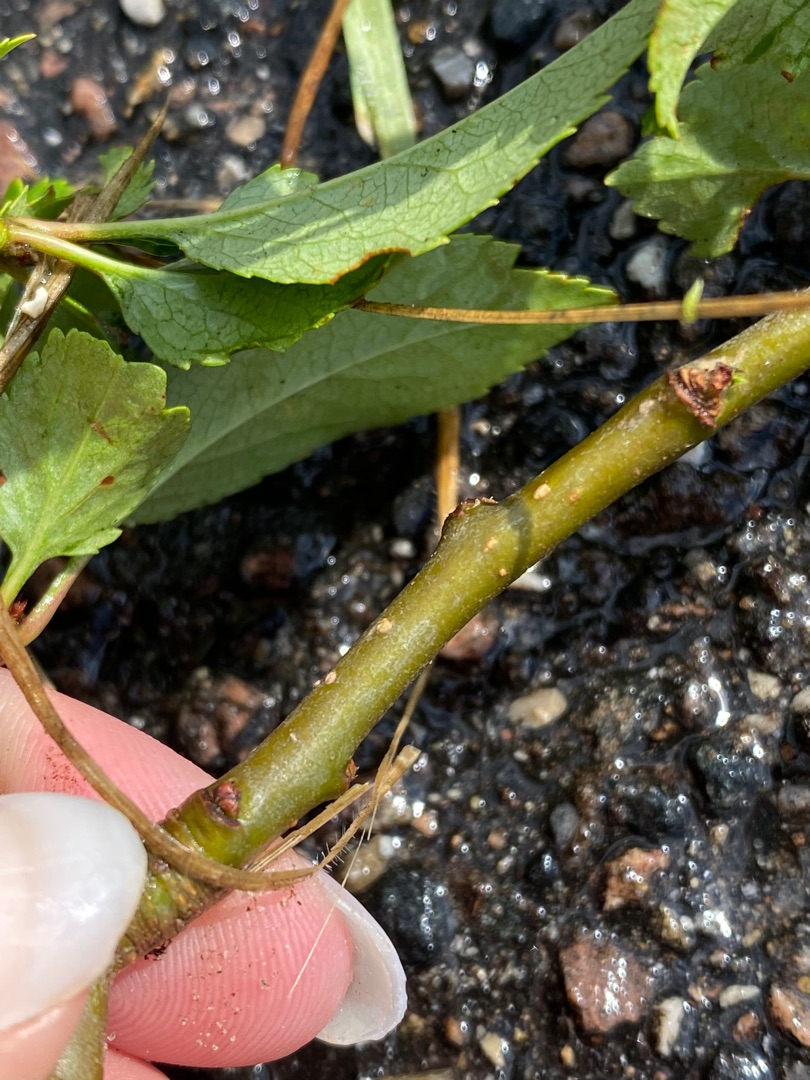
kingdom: Plantae
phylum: Tracheophyta
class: Magnoliopsida
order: Rosales
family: Rosaceae
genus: Prunus
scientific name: Prunus cerasifera
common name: Mirabel
